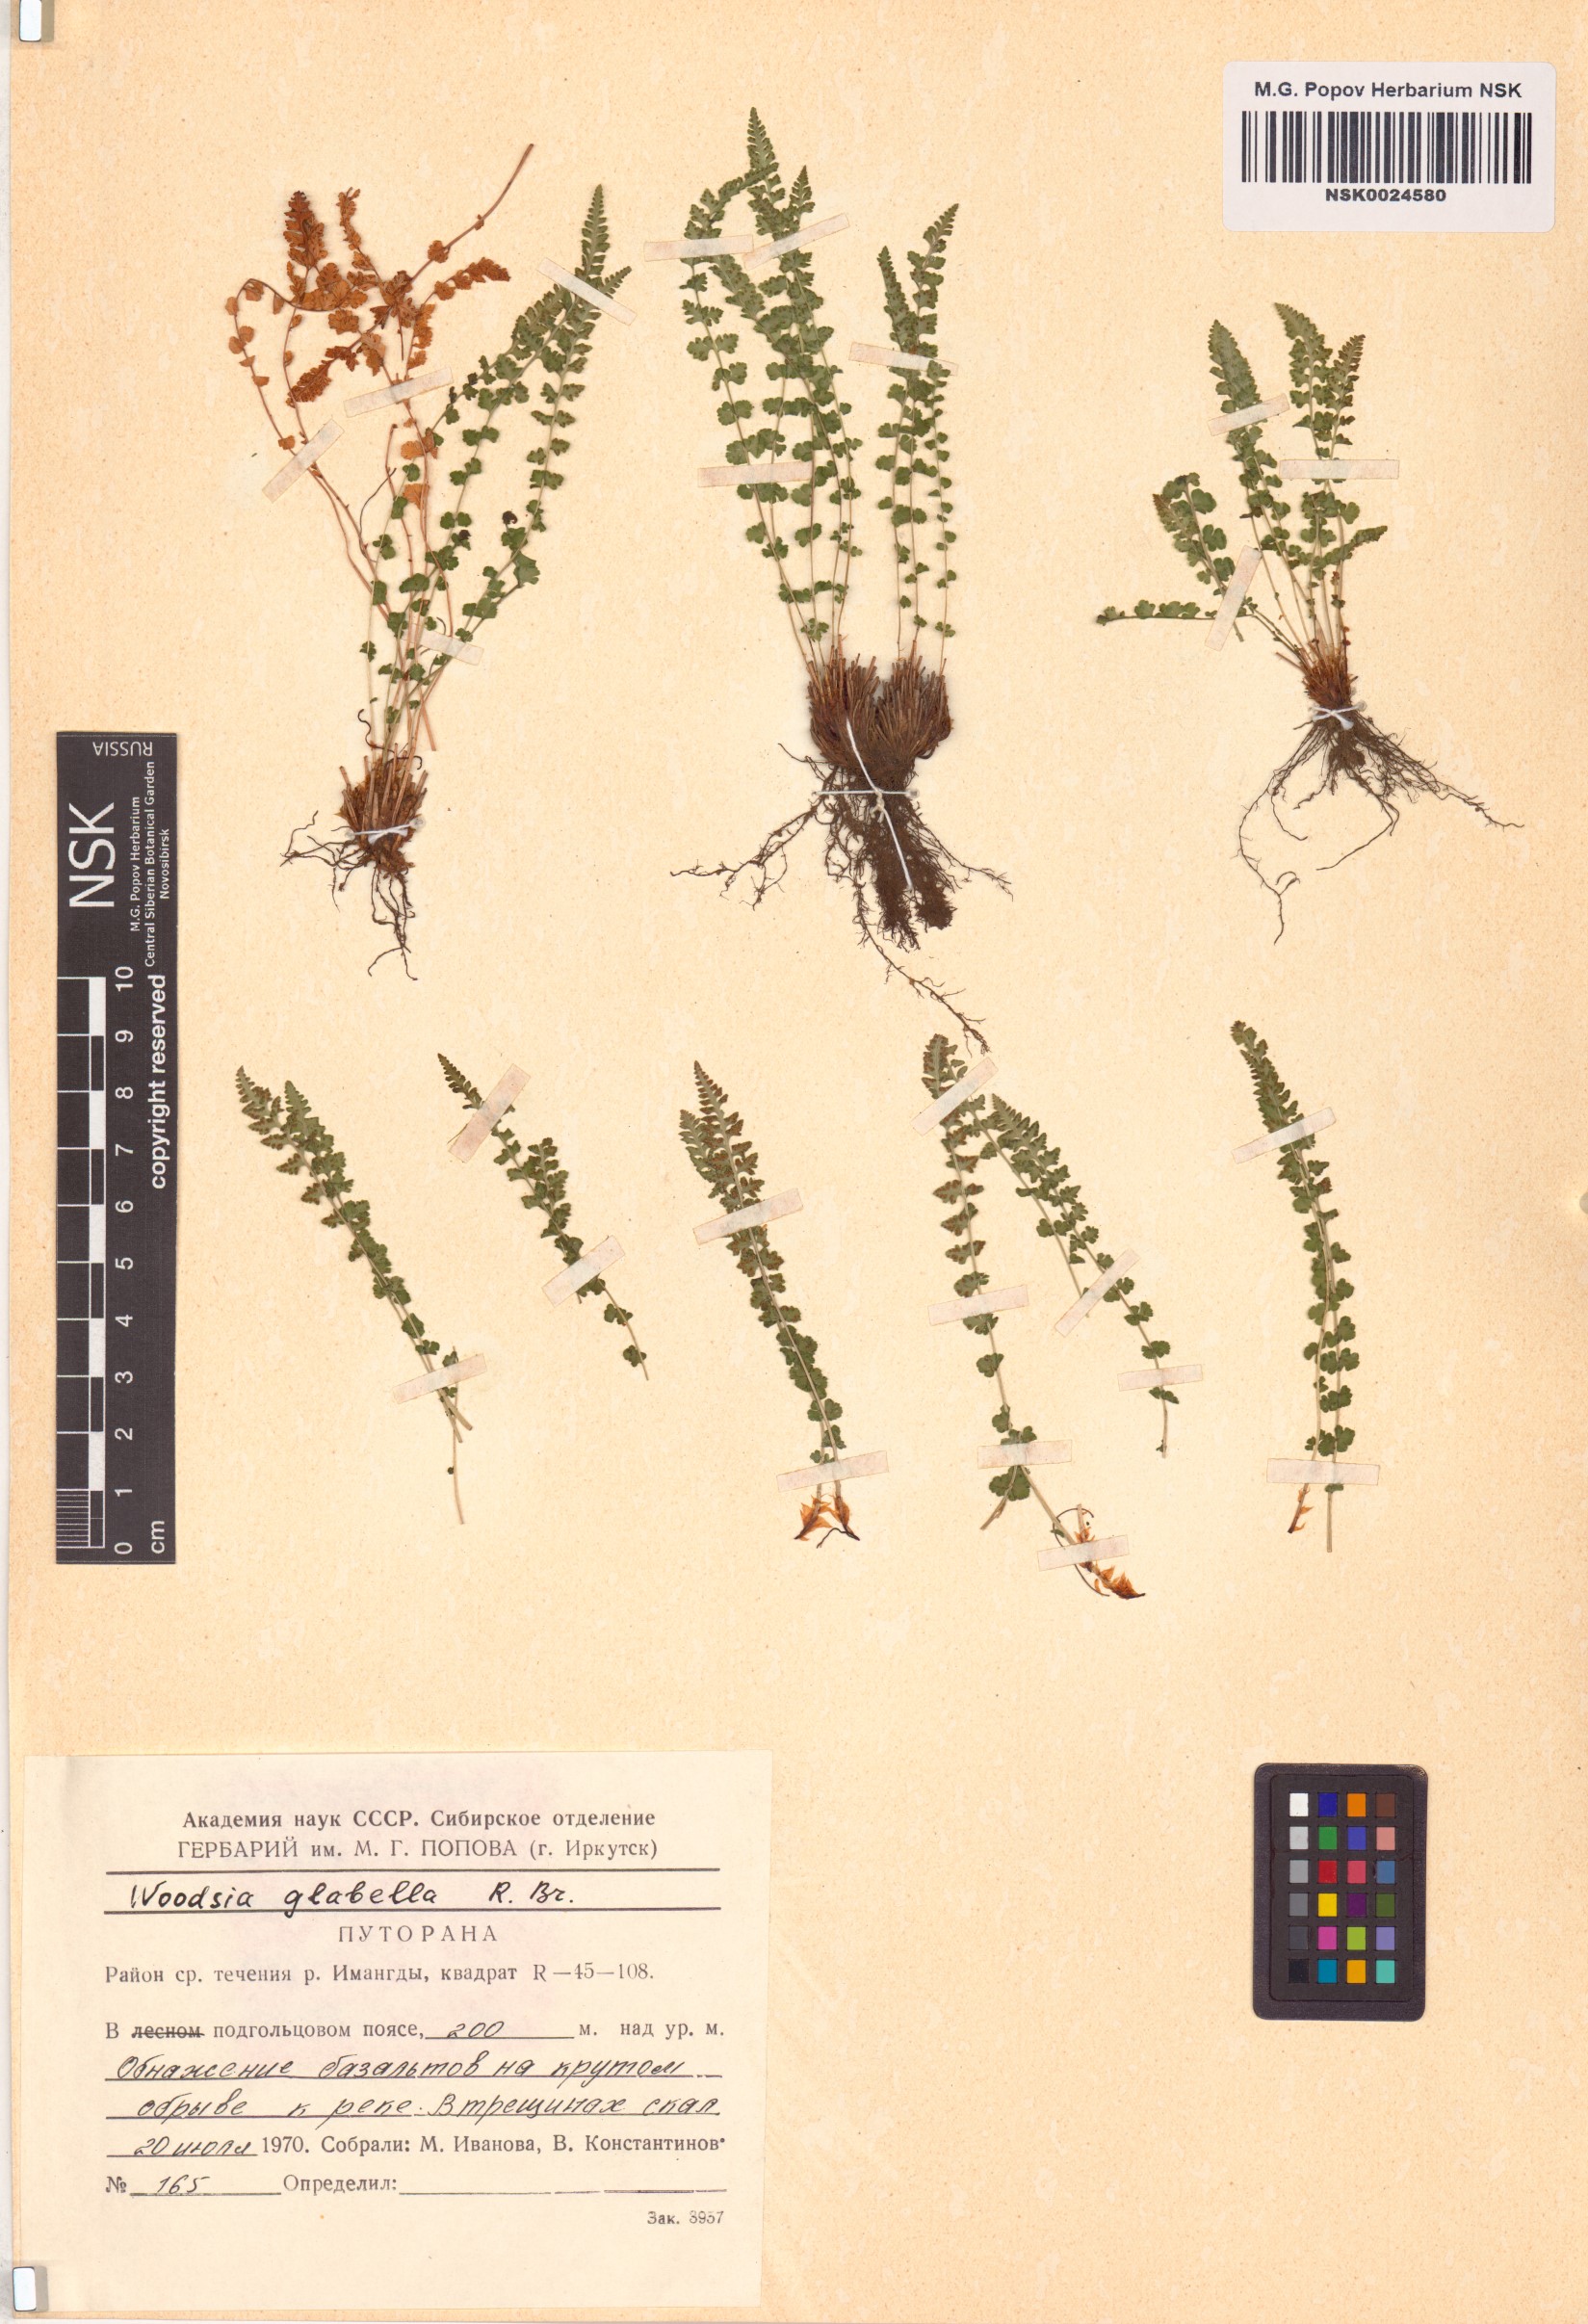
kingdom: Plantae
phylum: Tracheophyta
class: Polypodiopsida
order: Polypodiales
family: Woodsiaceae
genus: Woodsia
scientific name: Woodsia glabella
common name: Smooth woodsia
